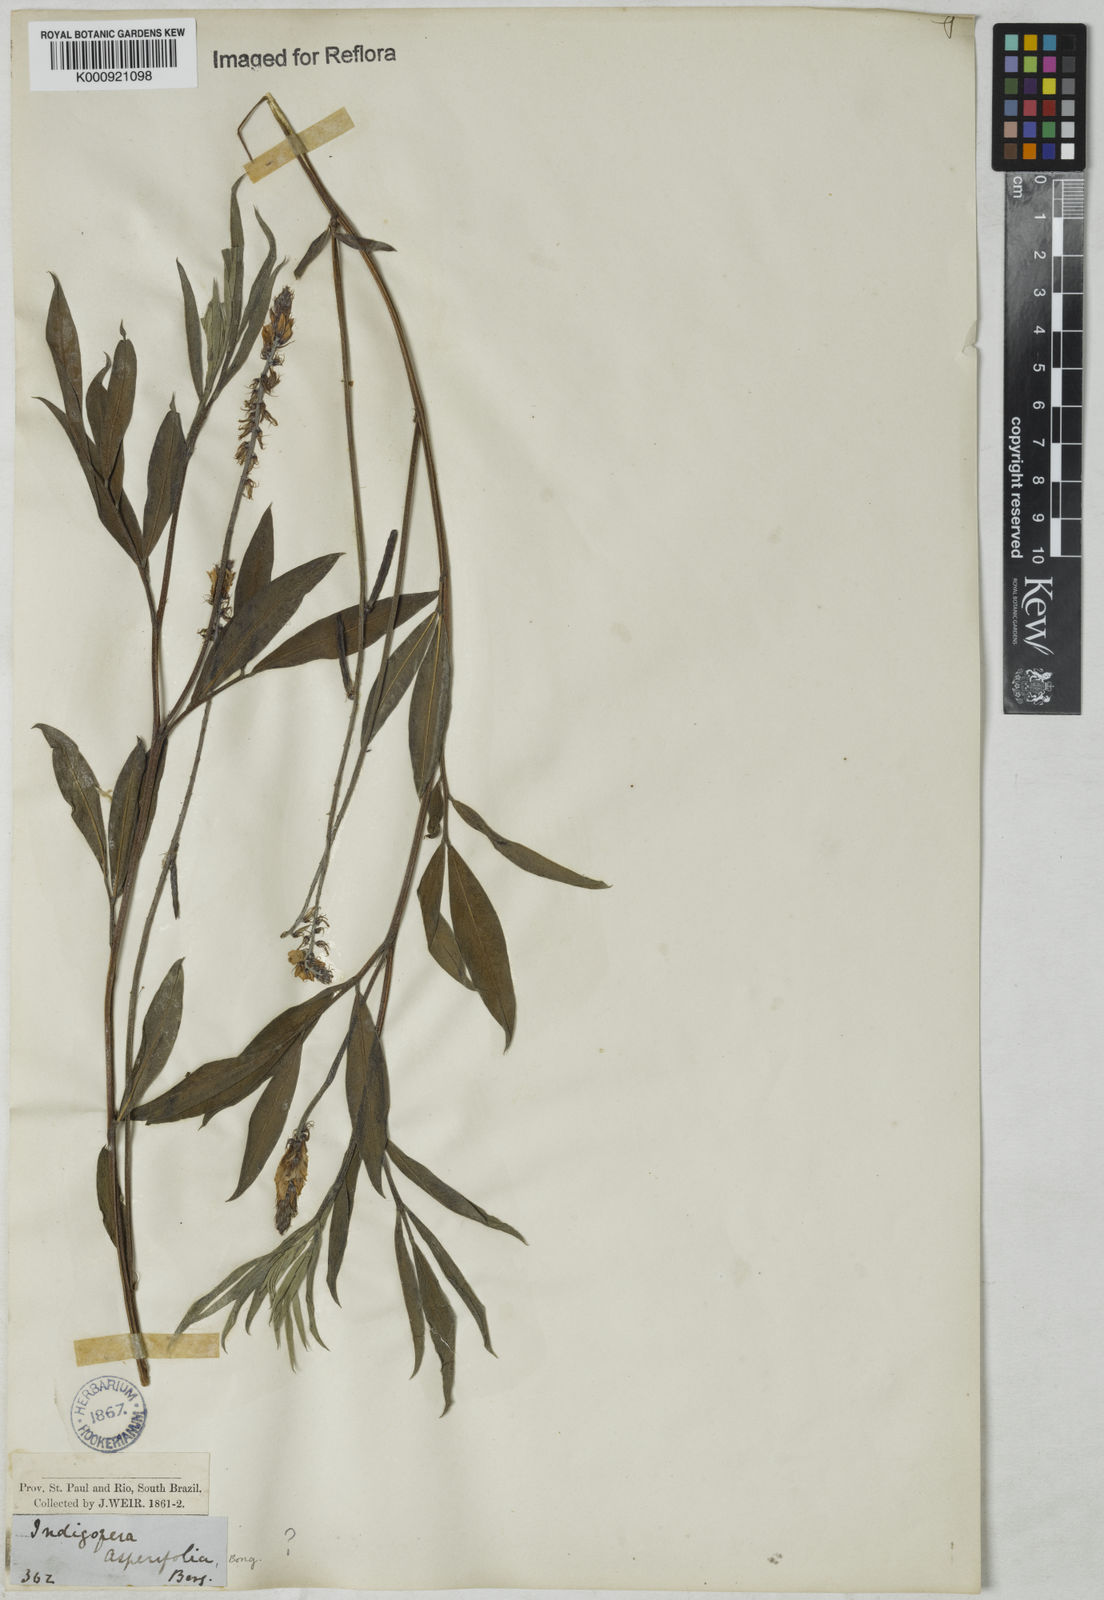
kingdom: Plantae
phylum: Tracheophyta
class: Magnoliopsida
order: Fabales
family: Fabaceae
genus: Indigofera
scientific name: Indigofera
